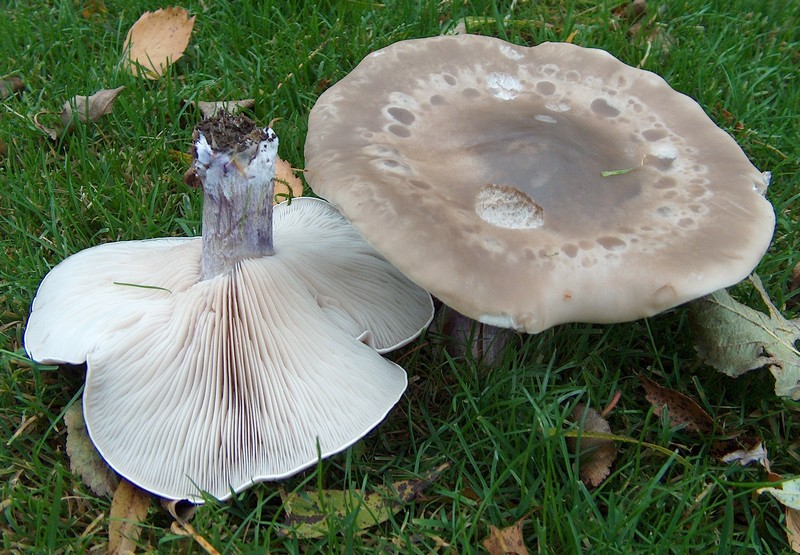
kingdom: Fungi
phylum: Basidiomycota
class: Agaricomycetes
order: Agaricales
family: Tricholomataceae
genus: Lepista
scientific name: Lepista personata
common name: bleg hekseringshat
